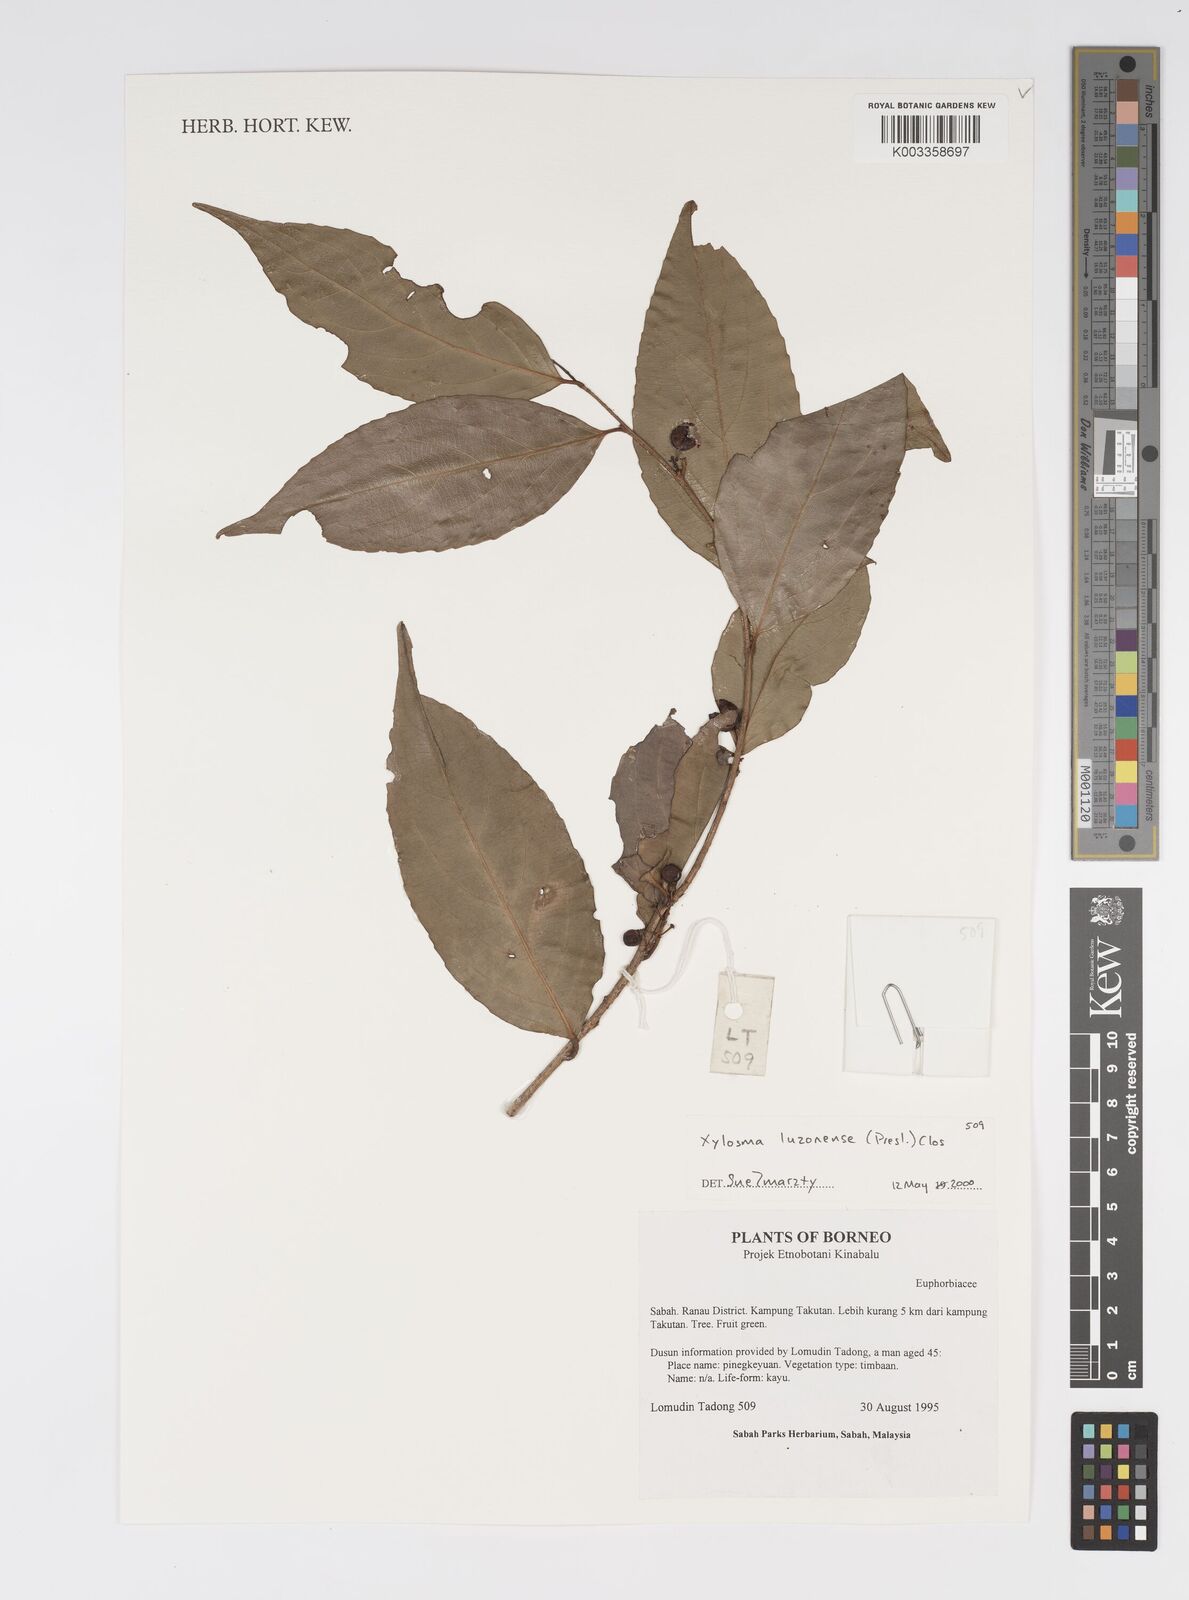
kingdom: Plantae
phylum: Tracheophyta
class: Magnoliopsida
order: Malpighiales
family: Salicaceae
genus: Xylosma
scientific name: Xylosma luzonensis
